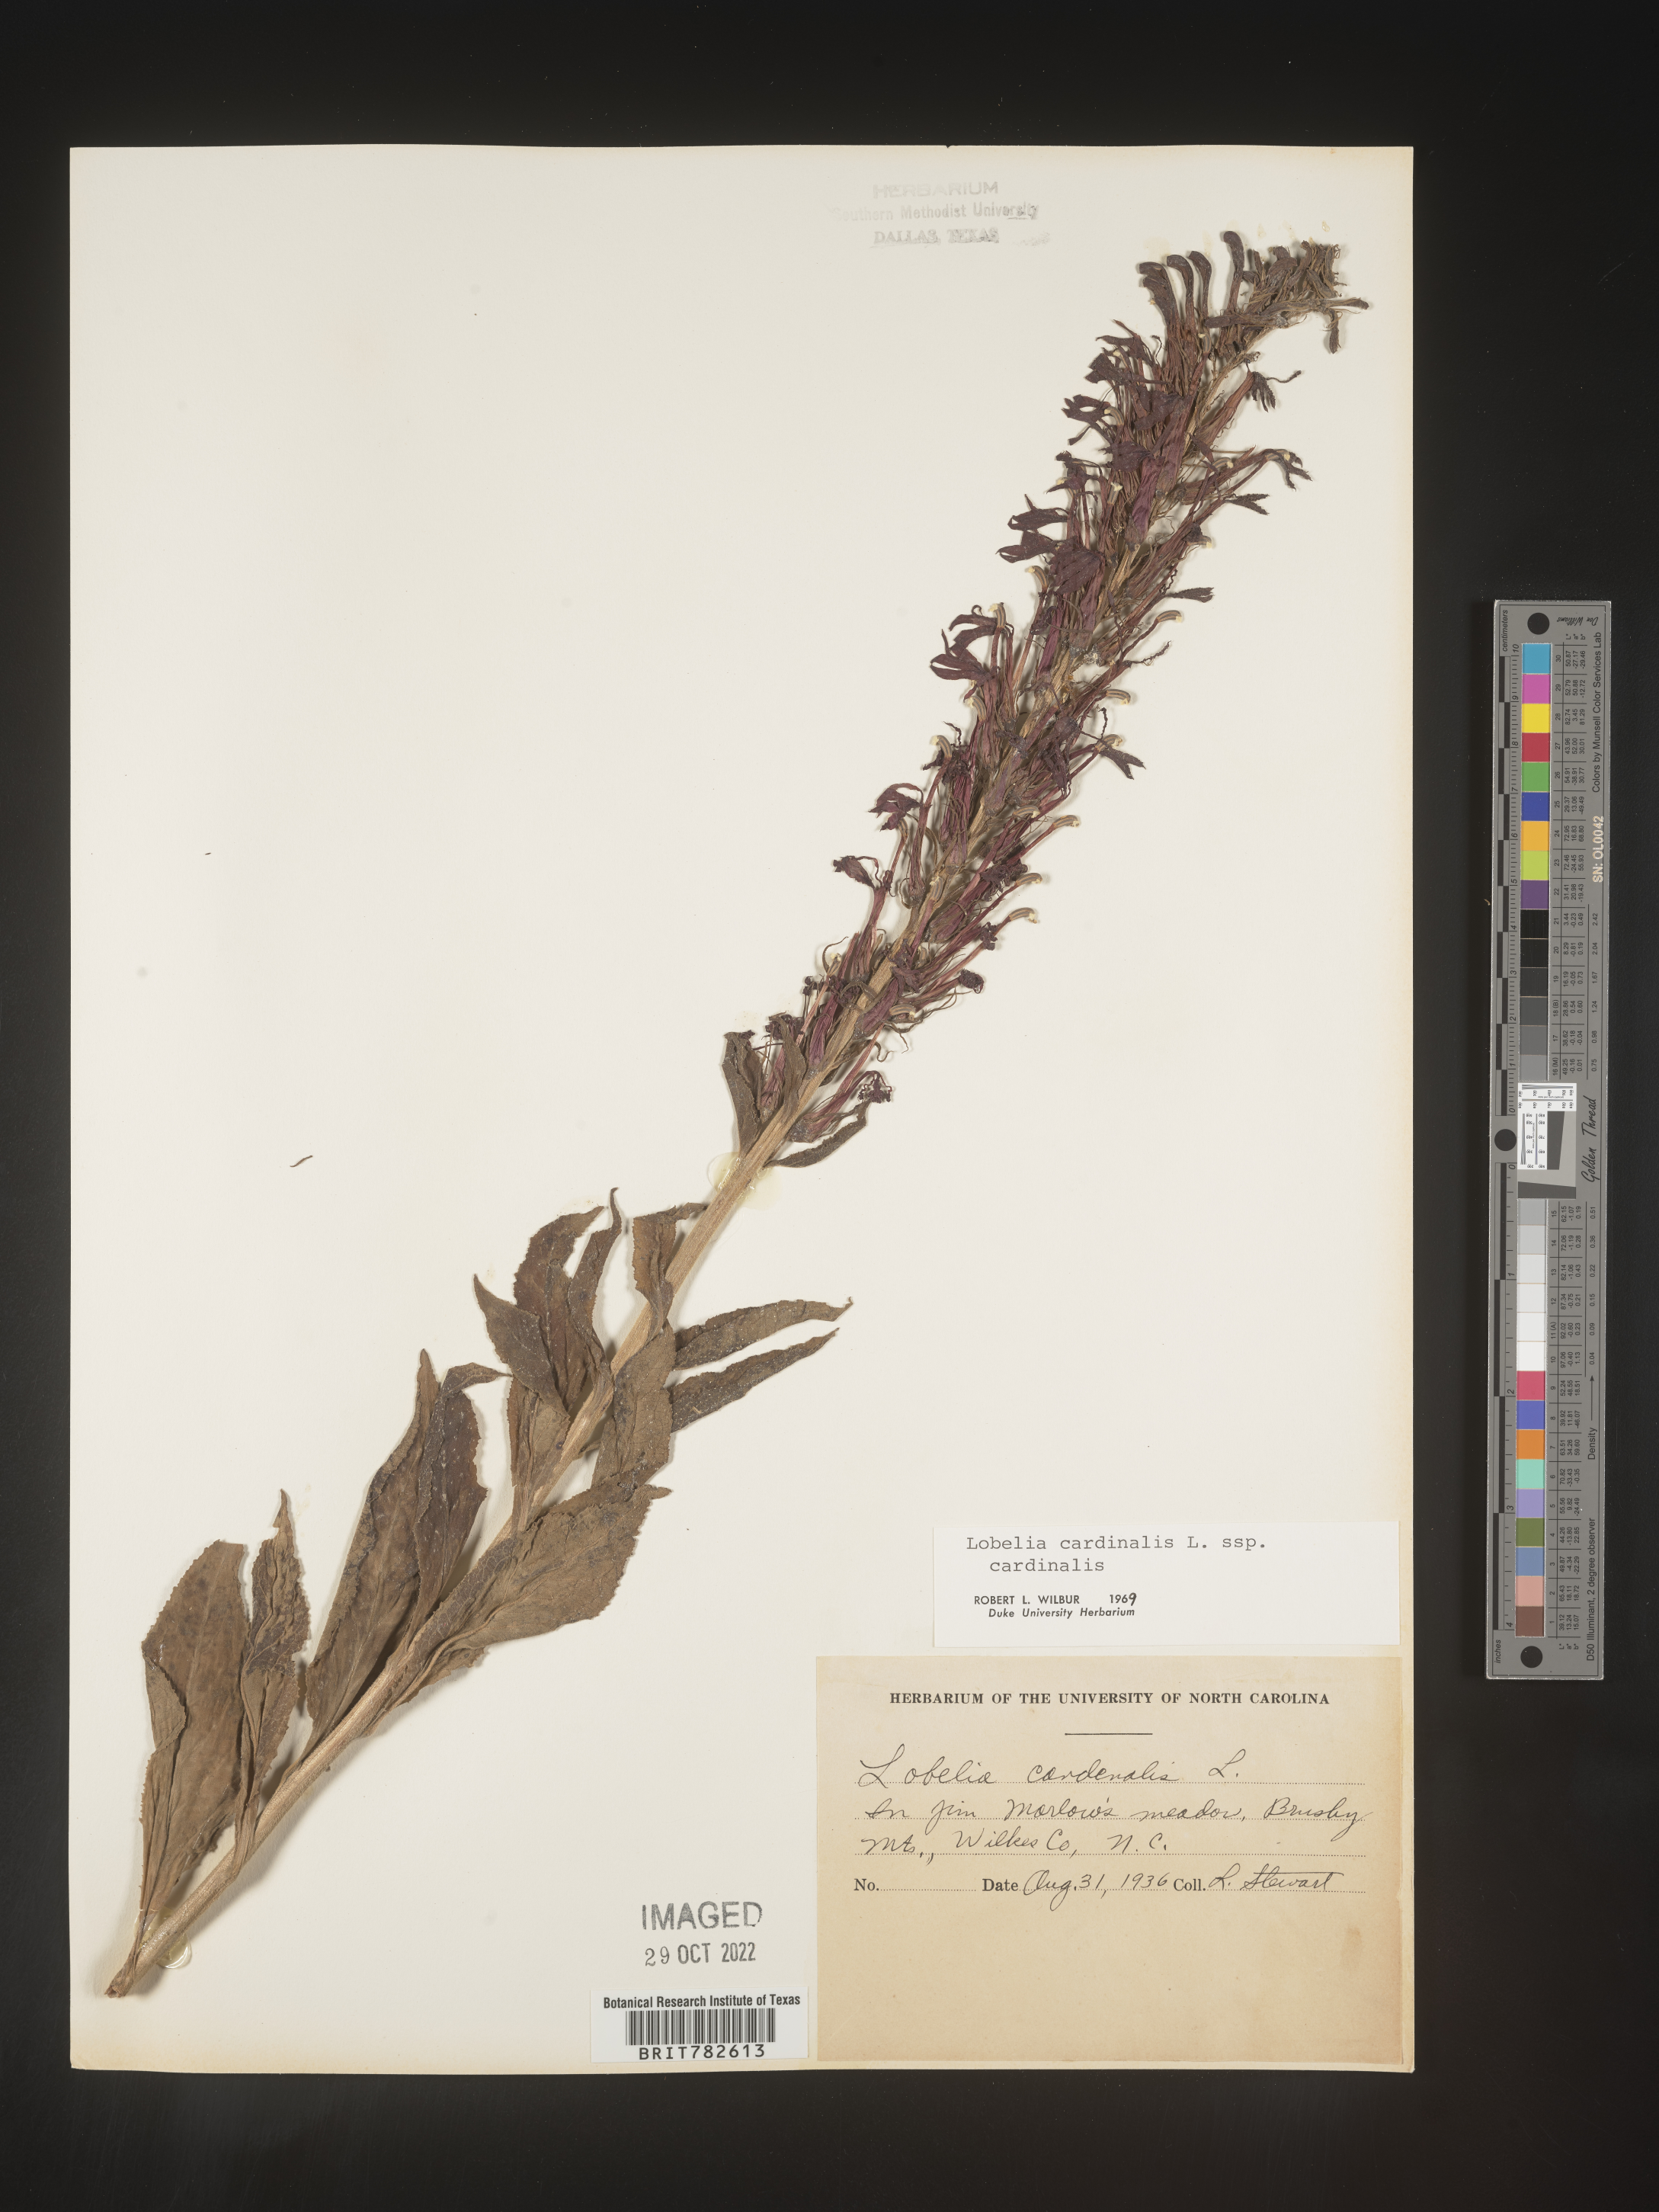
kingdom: Plantae
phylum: Tracheophyta
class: Magnoliopsida
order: Asterales
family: Campanulaceae
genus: Lobelia
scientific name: Lobelia cardinalis
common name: Cardinal flower
